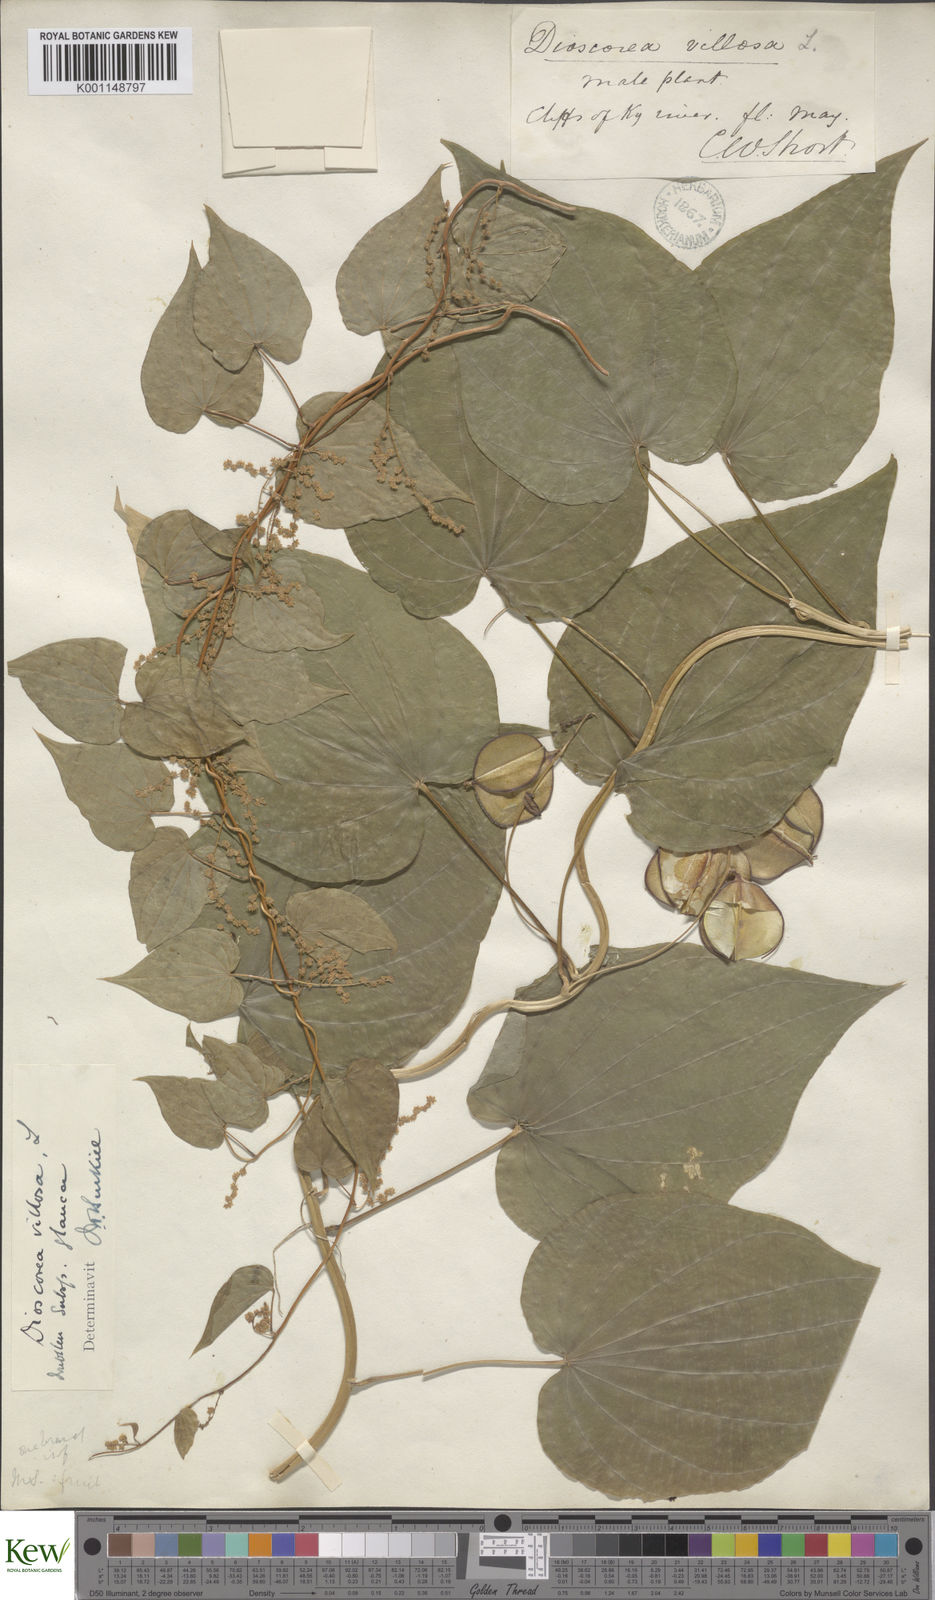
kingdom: Plantae
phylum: Tracheophyta
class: Liliopsida
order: Dioscoreales
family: Dioscoreaceae
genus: Dioscorea
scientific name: Dioscorea villosa
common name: Wild yam
